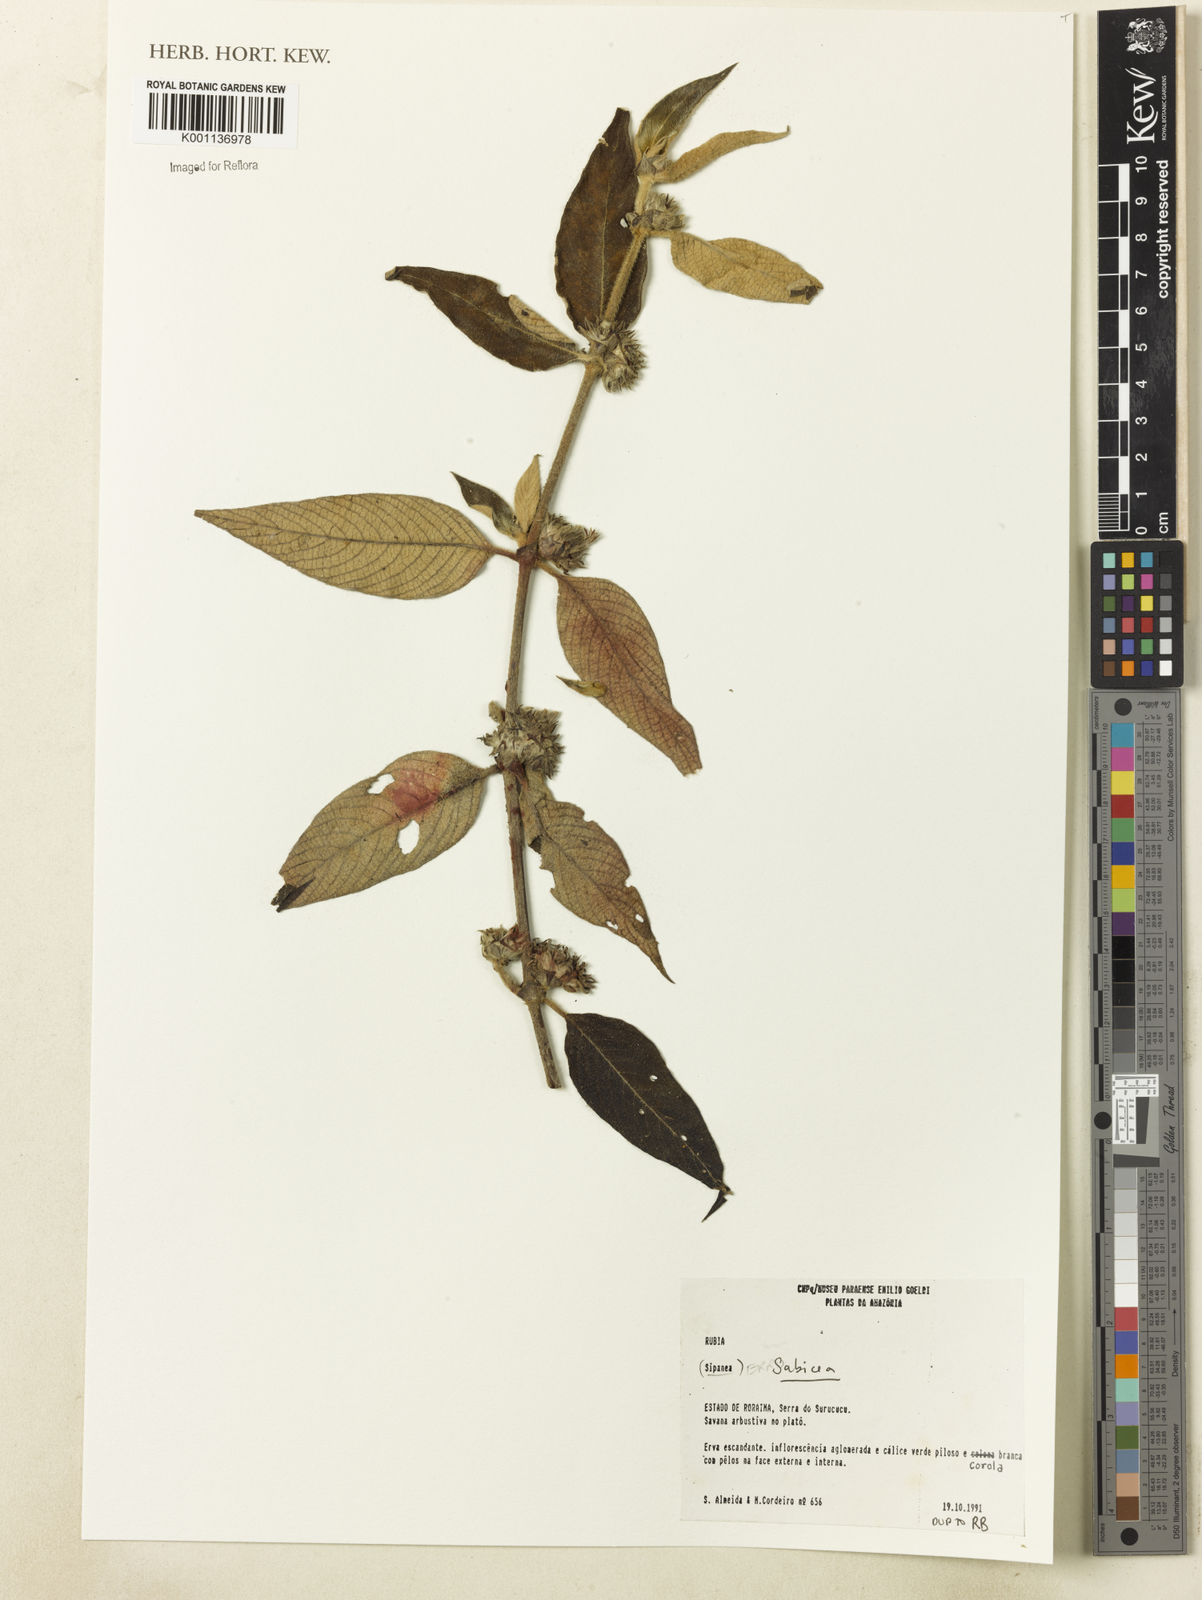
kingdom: Plantae
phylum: Tracheophyta
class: Magnoliopsida
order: Gentianales
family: Rubiaceae
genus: Sabicea
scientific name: Sabicea
